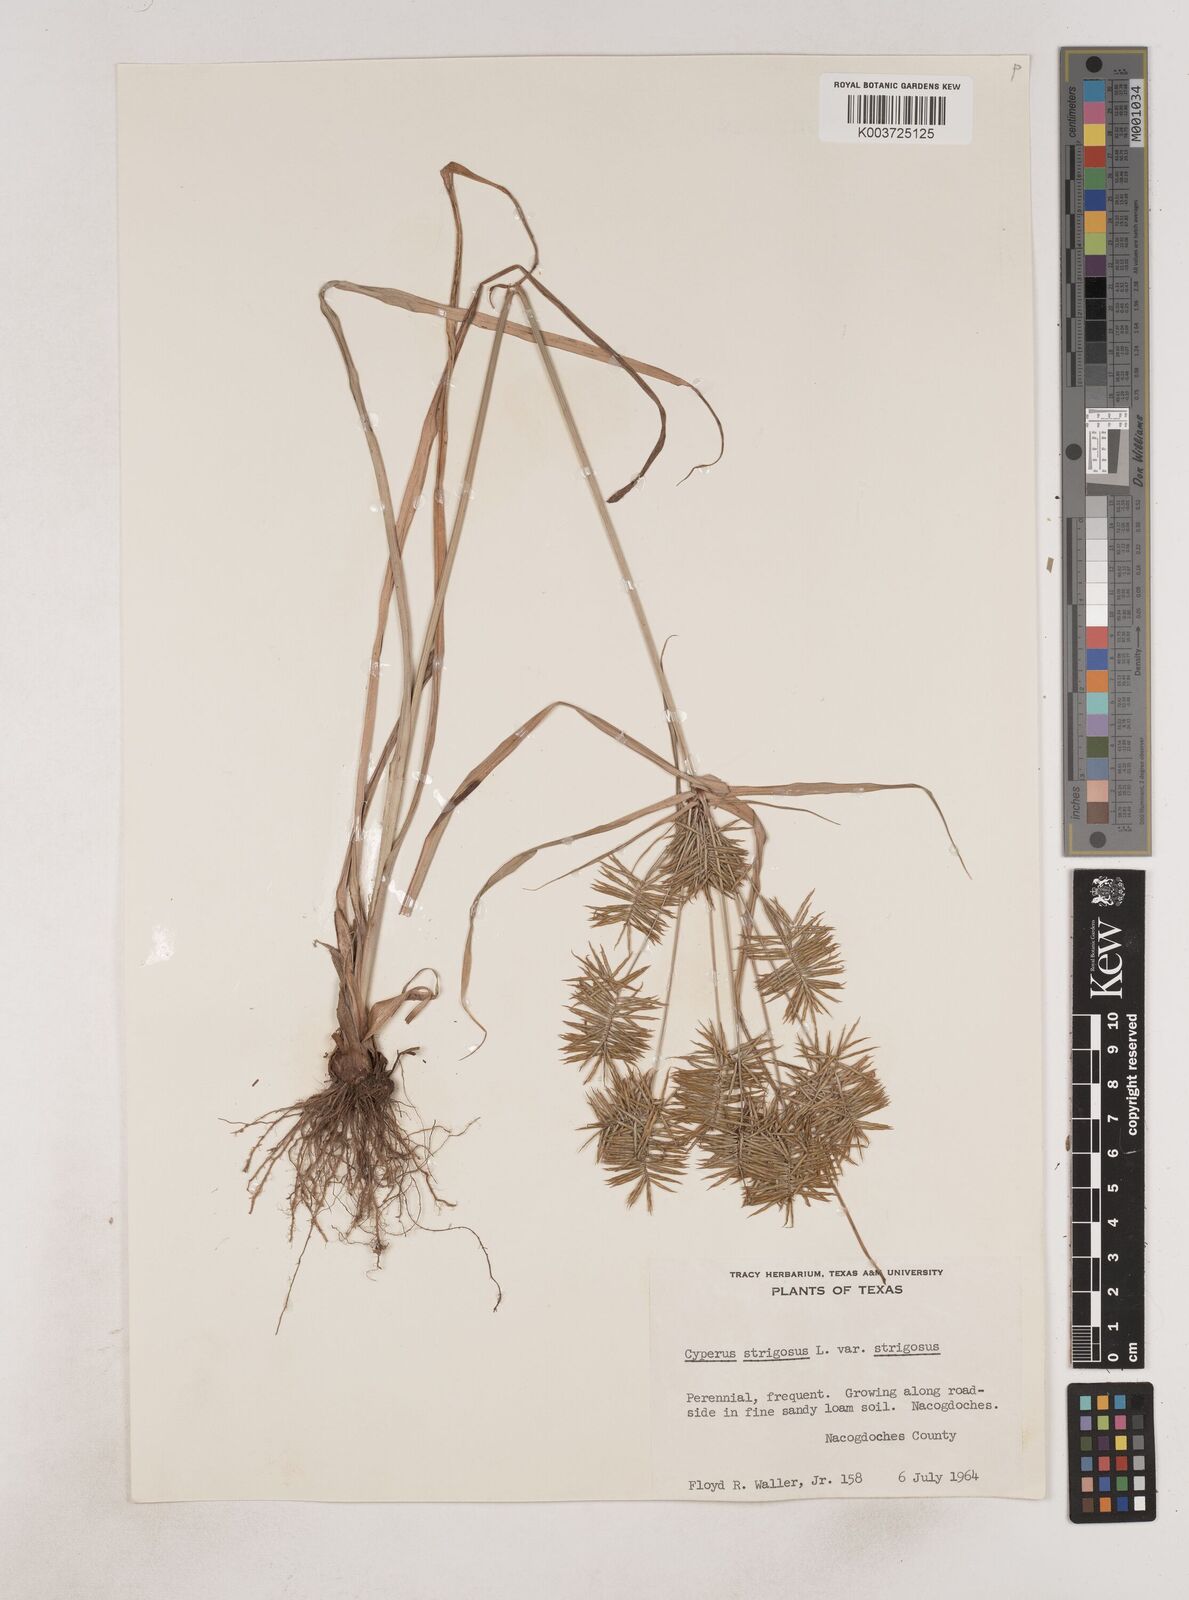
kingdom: Plantae
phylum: Tracheophyta
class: Liliopsida
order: Poales
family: Cyperaceae
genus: Cyperus
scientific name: Cyperus strigosus
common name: False nutsedge
